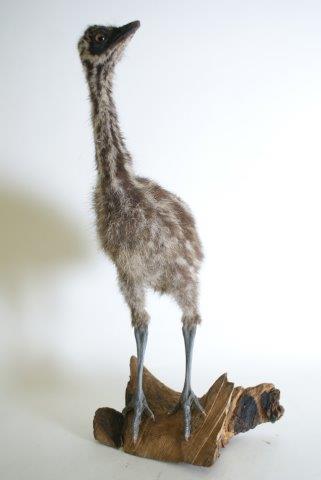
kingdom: Animalia
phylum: Chordata
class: Aves
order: Casuariiformes
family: Dromaiidae
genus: Dromaius
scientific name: Dromaius novaehollandiae
